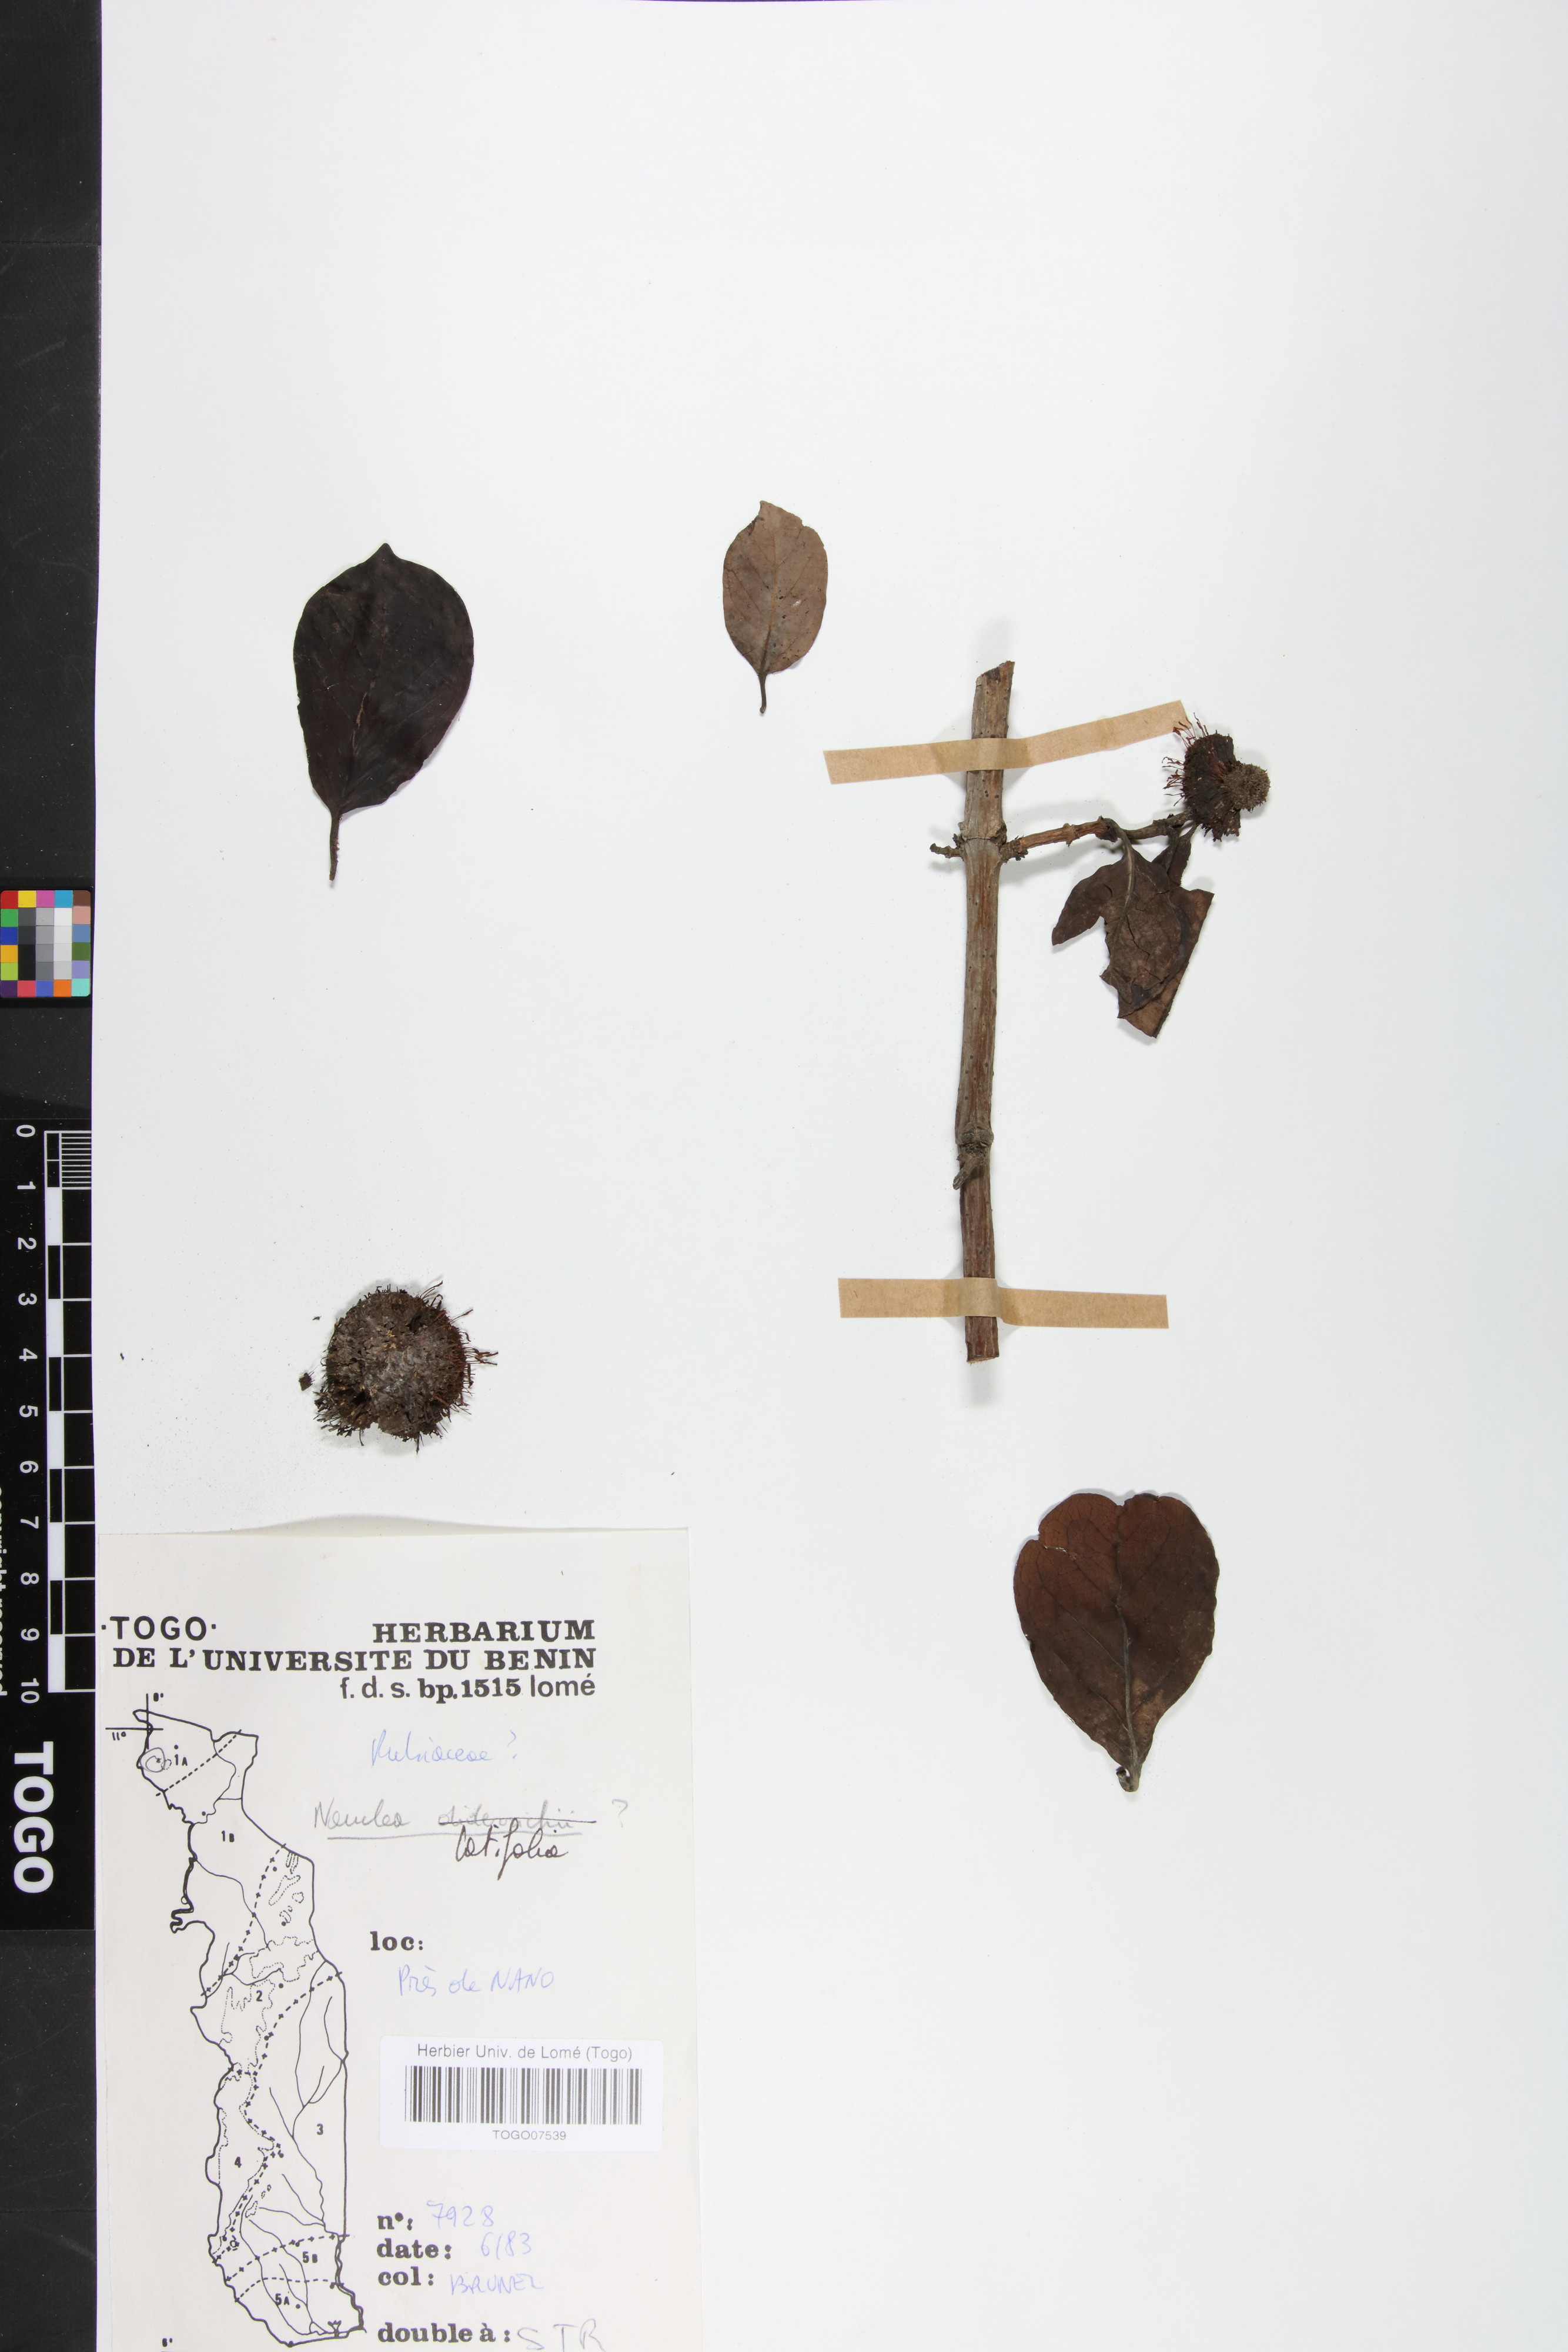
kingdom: Plantae
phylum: Tracheophyta
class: Magnoliopsida
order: Gentianales
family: Rubiaceae
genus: Nauclea
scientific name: Nauclea latifolia
